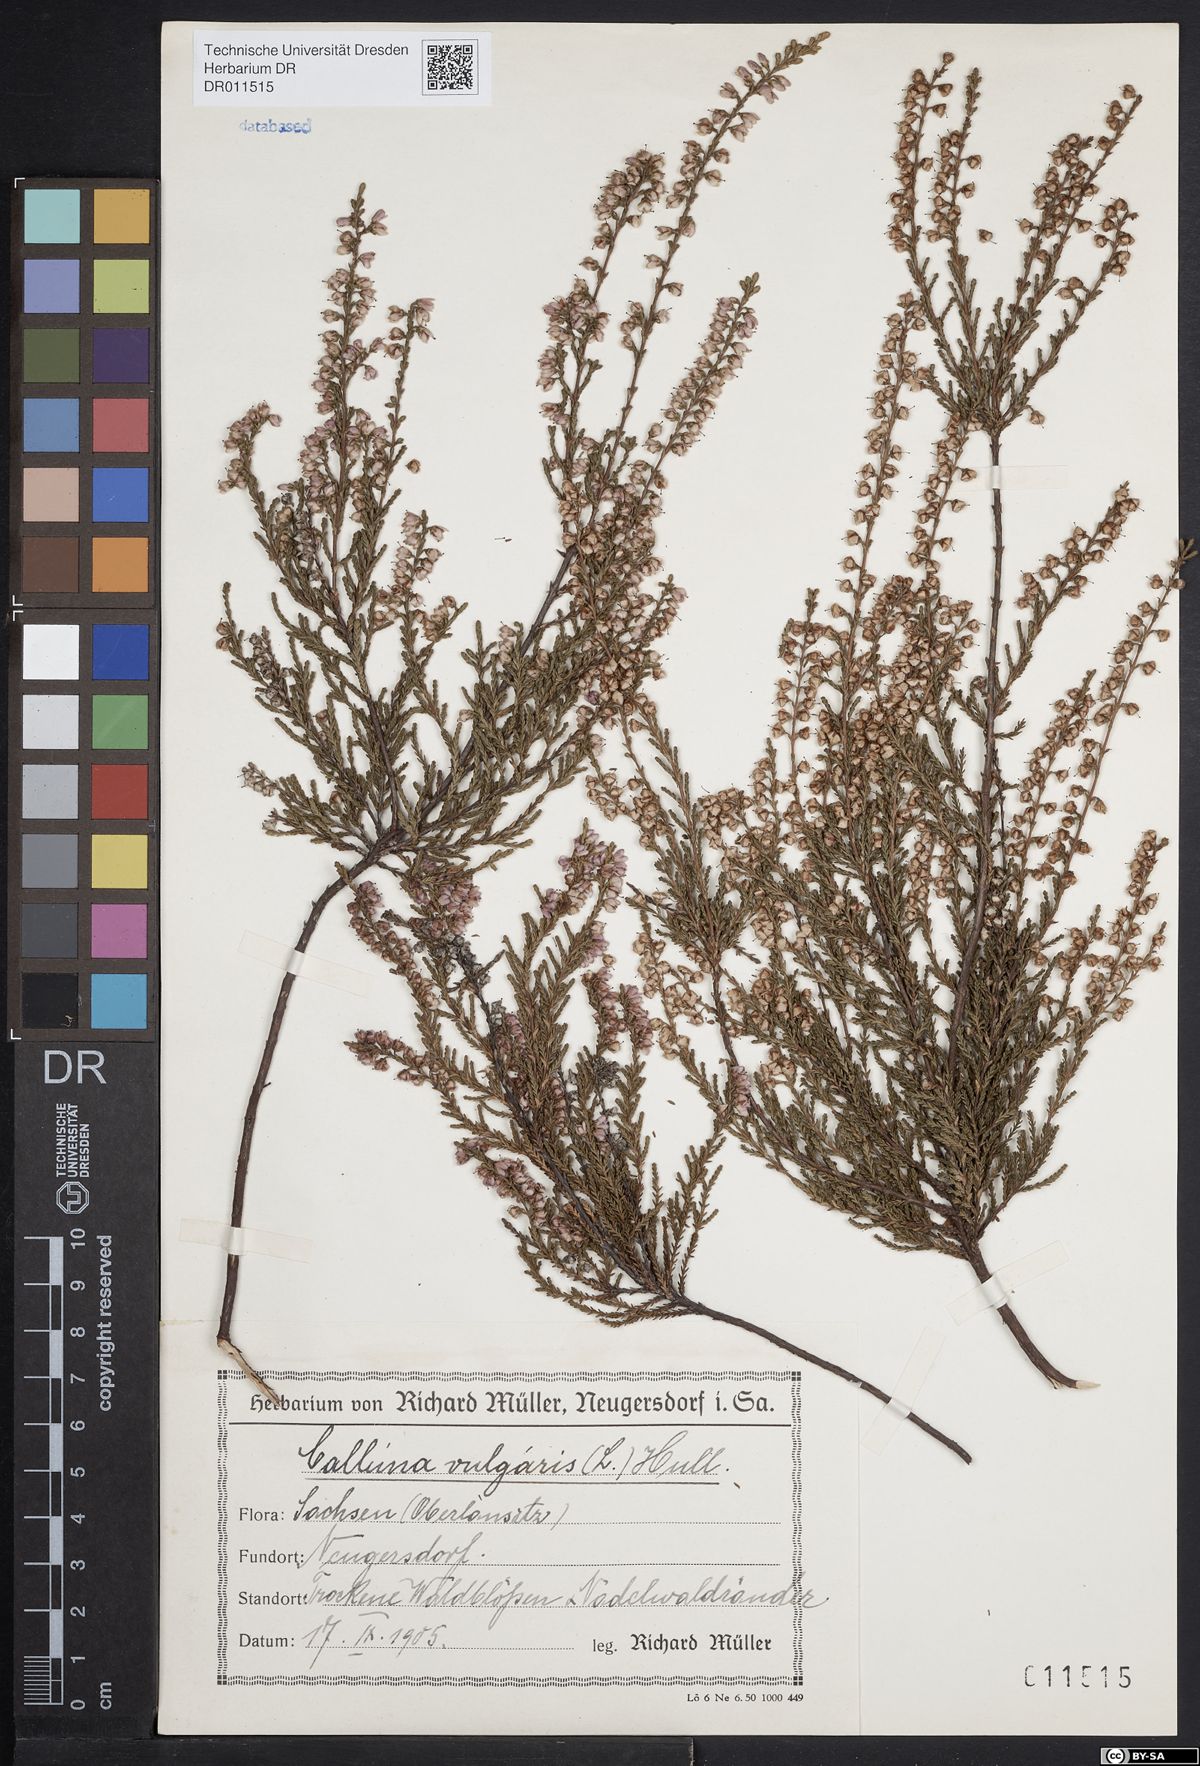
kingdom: Plantae
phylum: Tracheophyta
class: Magnoliopsida
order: Ericales
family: Ericaceae
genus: Calluna
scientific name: Calluna vulgaris
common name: Heather
